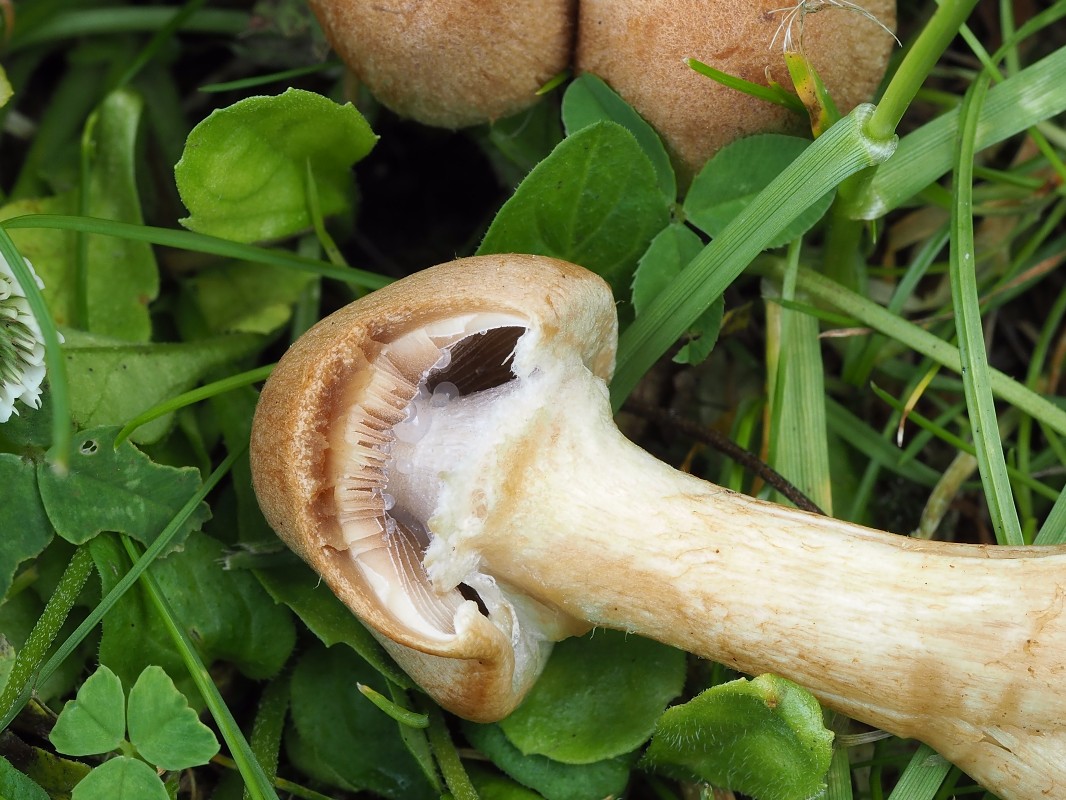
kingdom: Fungi
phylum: Basidiomycota
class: Agaricomycetes
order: Agaricales
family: Psathyrellaceae
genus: Lacrymaria
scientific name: Lacrymaria lacrymabunda
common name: grædende mørkhat
